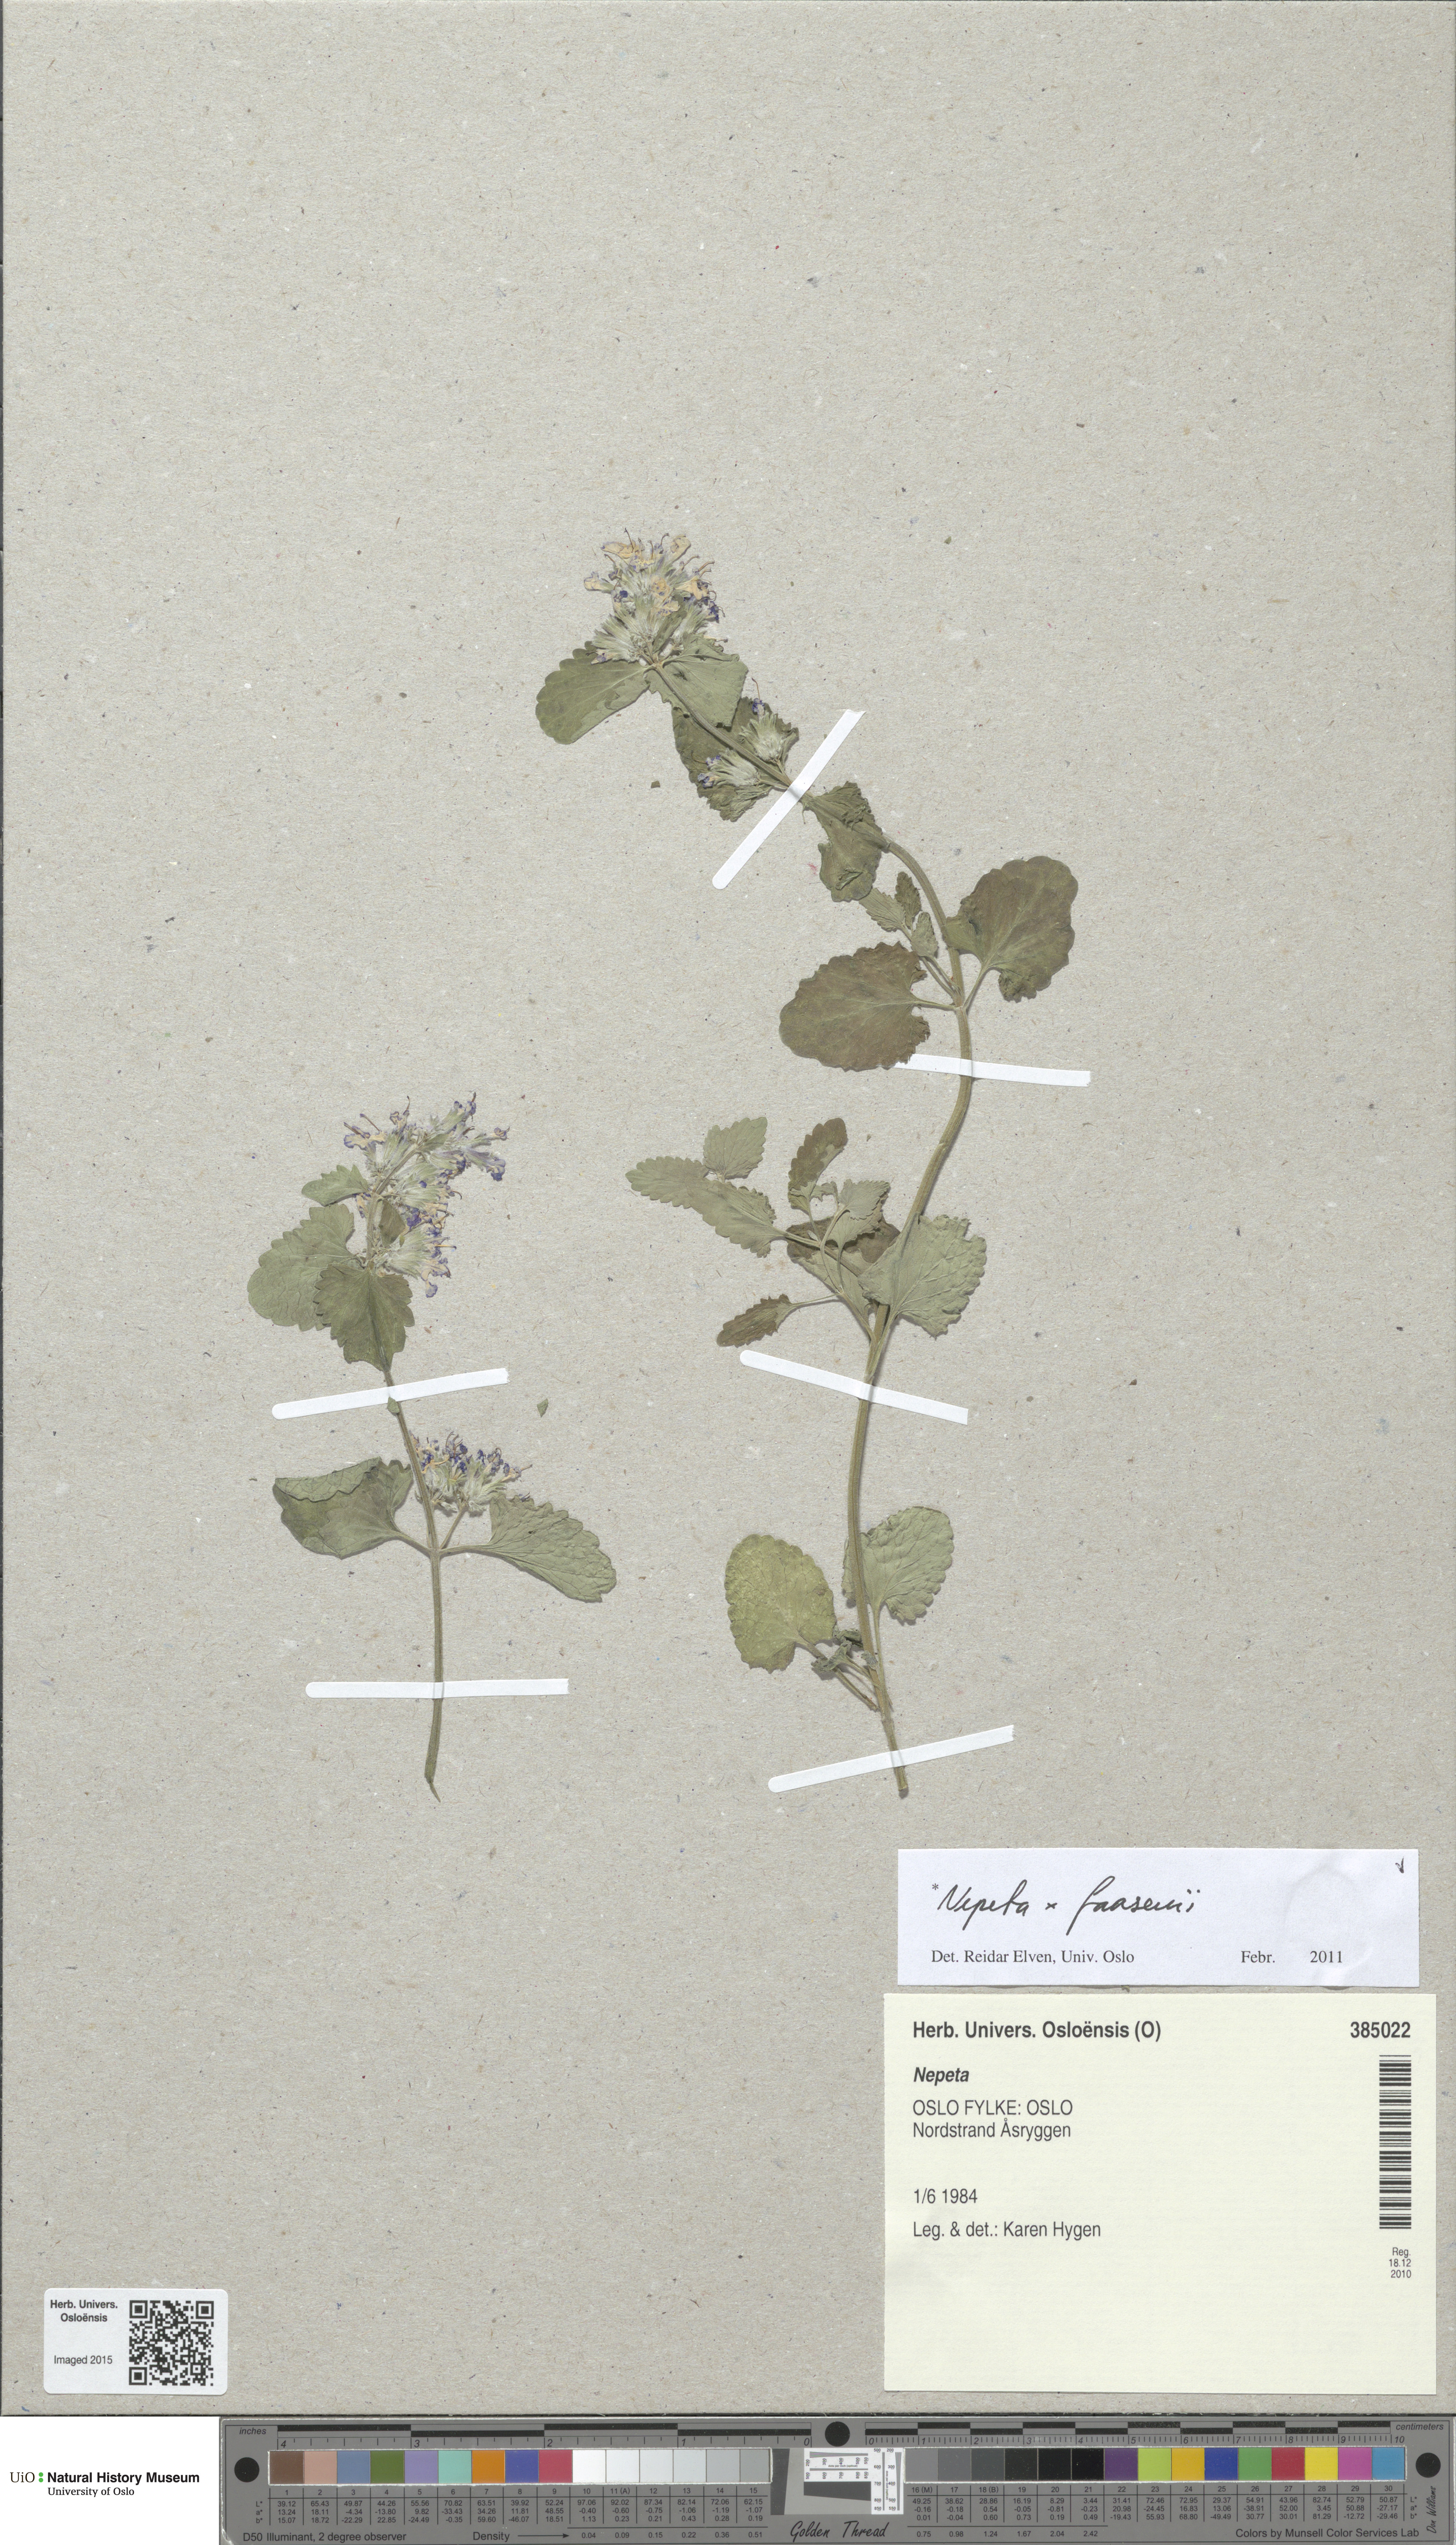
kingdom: Plantae
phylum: Tracheophyta
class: Magnoliopsida
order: Lamiales
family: Lamiaceae
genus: Nepeta
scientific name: Nepeta faassenii
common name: Catmint
